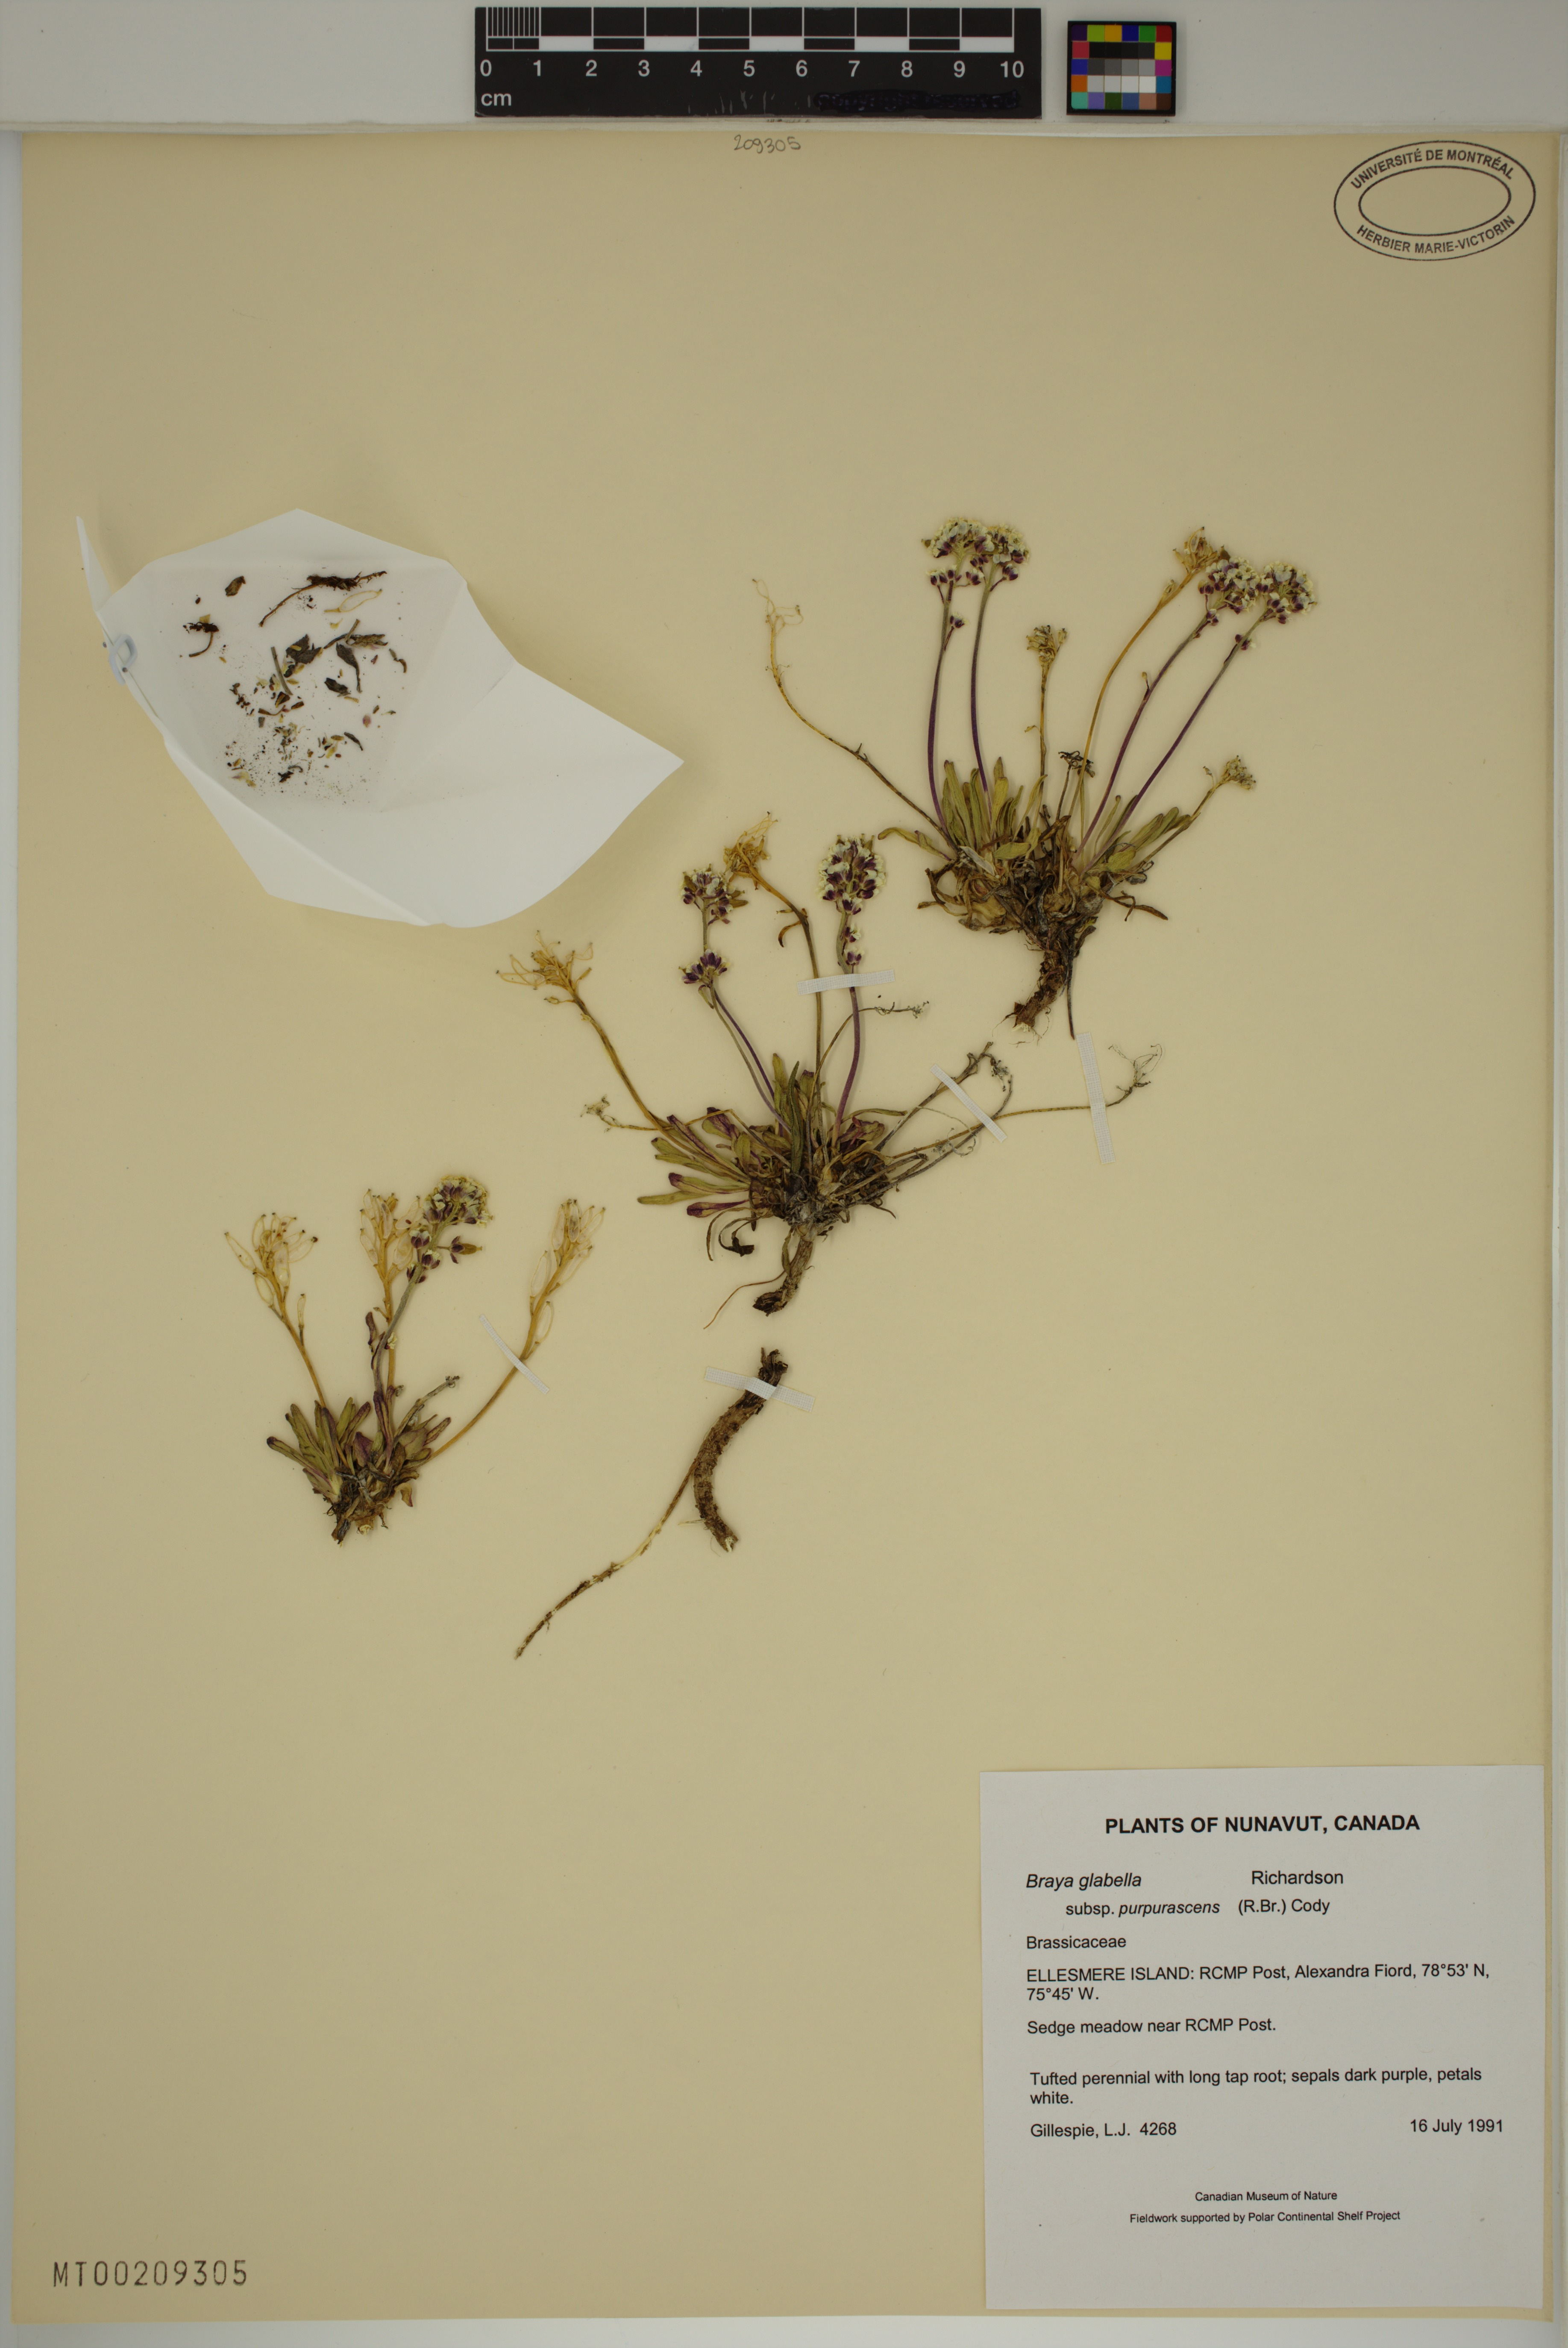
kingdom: Plantae
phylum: Tracheophyta
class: Magnoliopsida
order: Brassicales
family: Brassicaceae
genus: Braya
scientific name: Braya purpurascens
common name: Alpine braya
